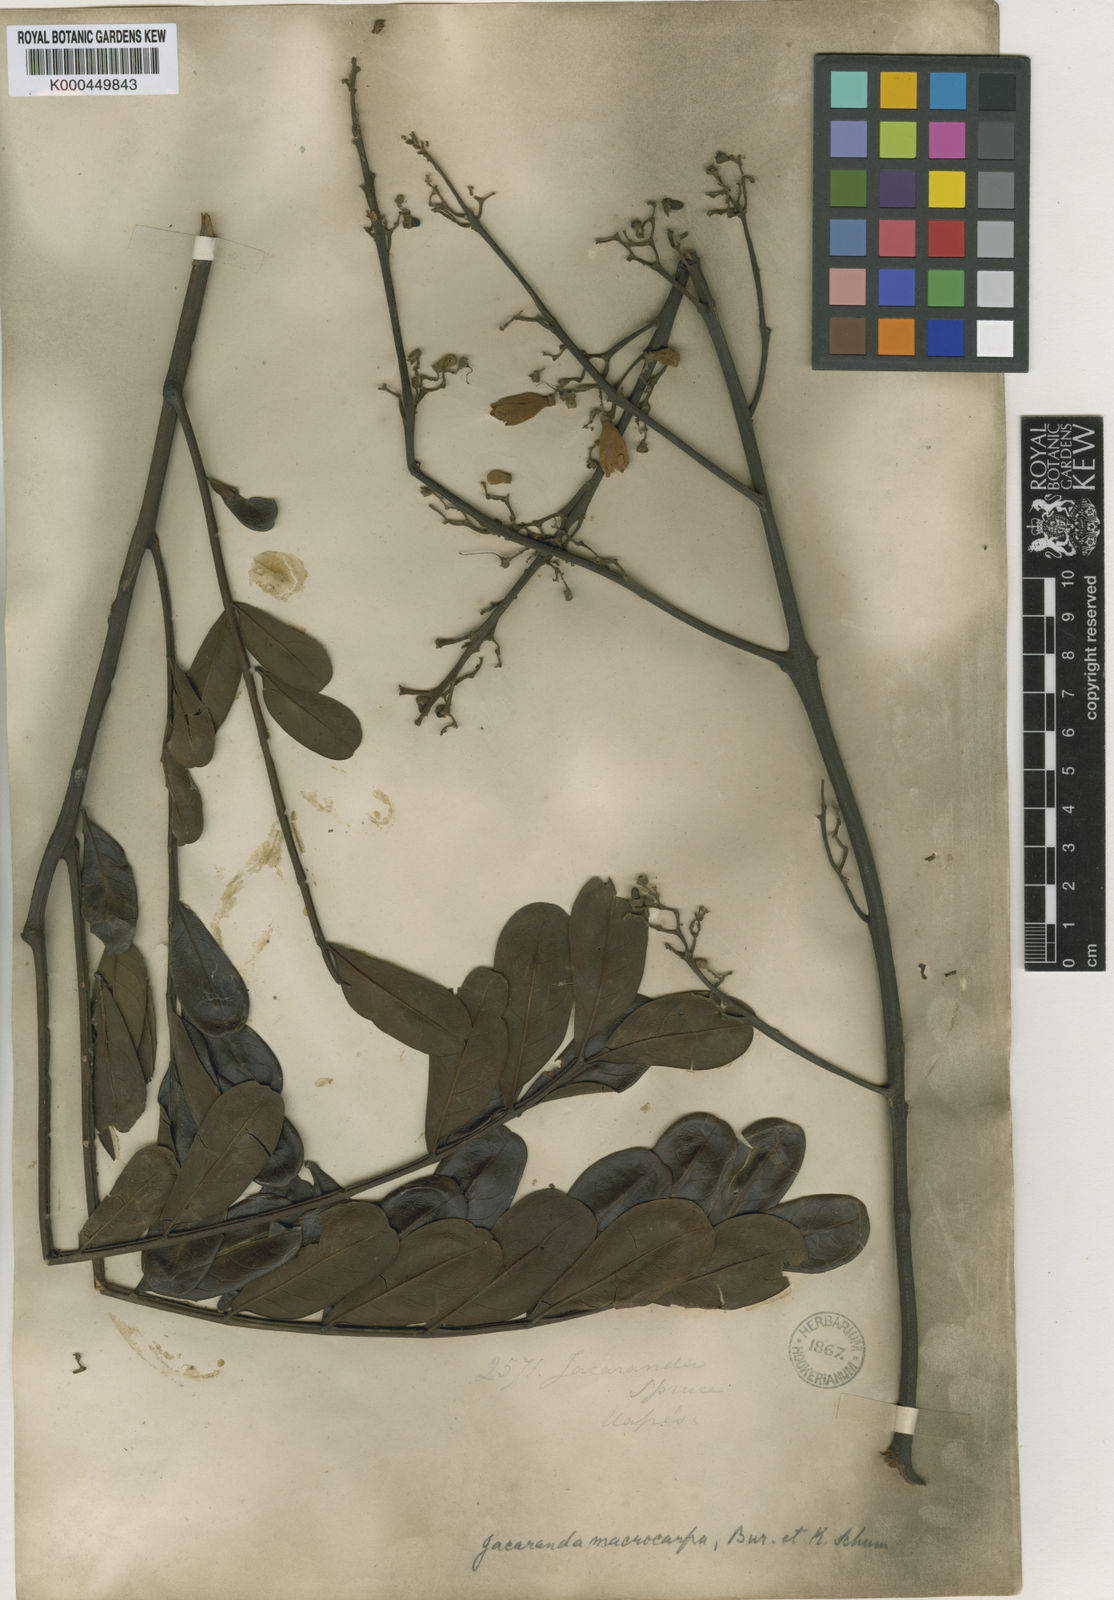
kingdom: Plantae
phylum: Tracheophyta
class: Magnoliopsida
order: Lamiales
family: Bignoniaceae
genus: Jacaranda
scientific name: Jacaranda macrocarpa
